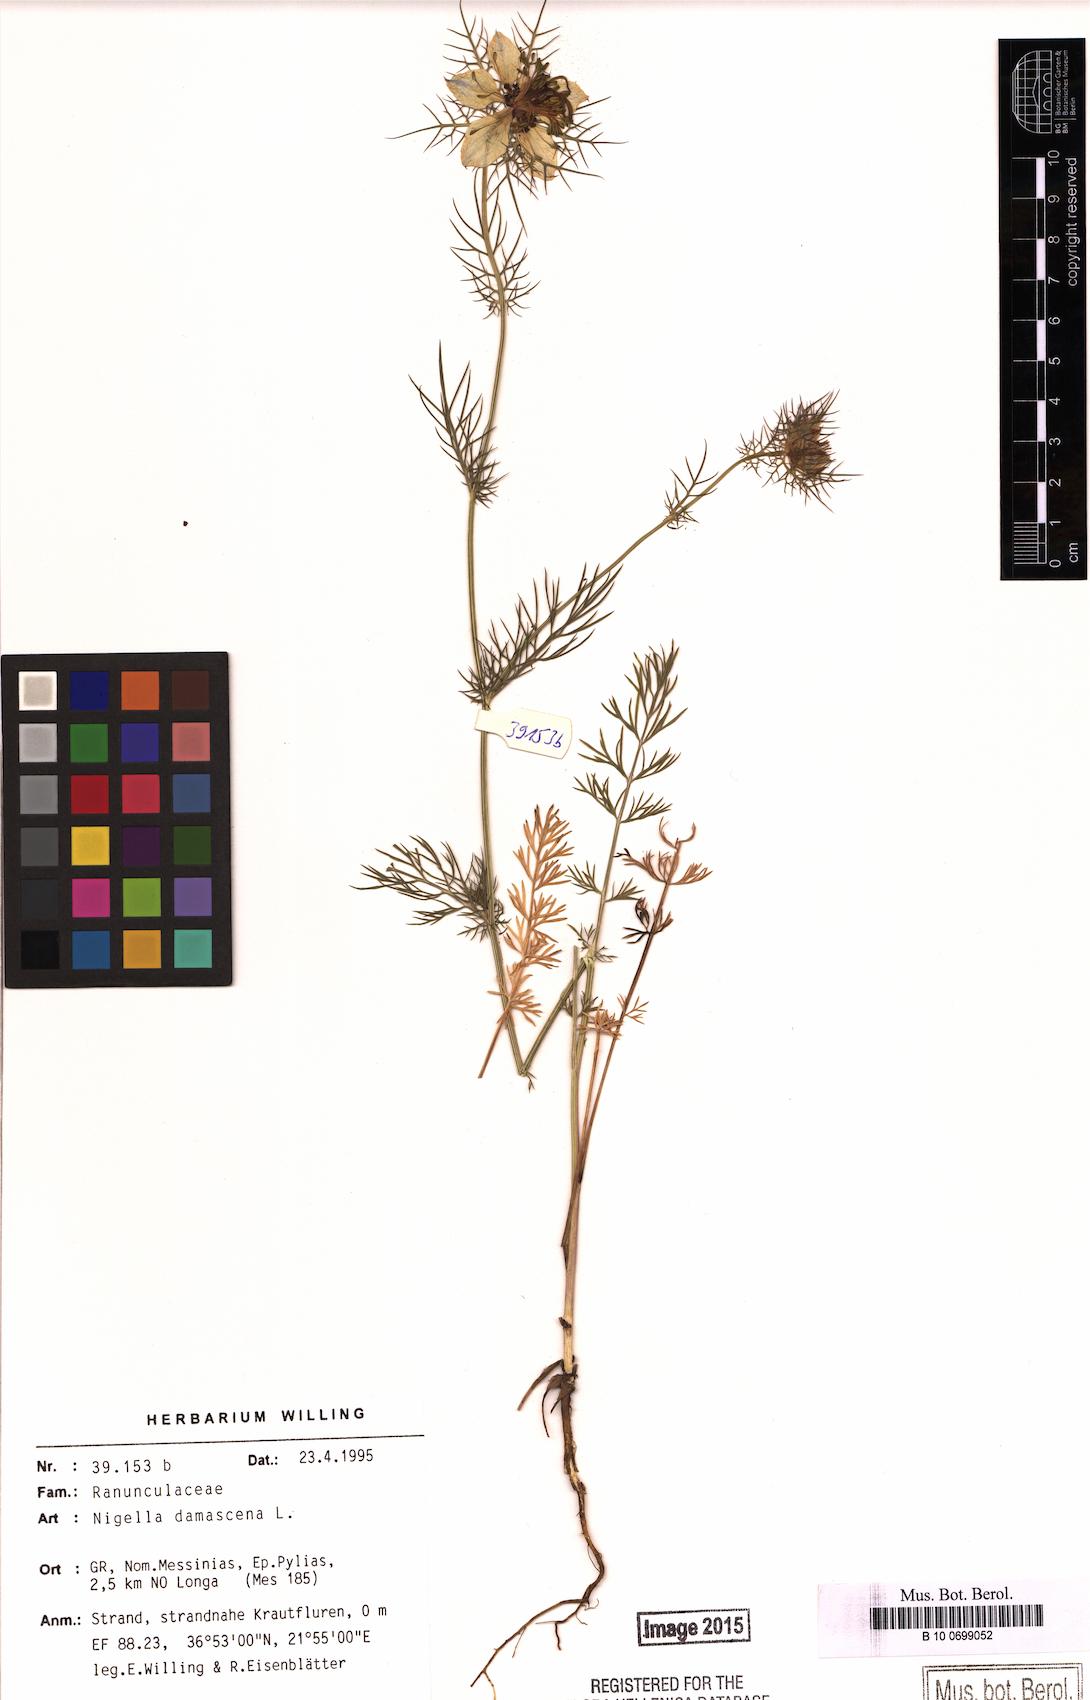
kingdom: Plantae
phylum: Tracheophyta
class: Magnoliopsida
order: Ranunculales
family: Ranunculaceae
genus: Nigella
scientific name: Nigella damascena
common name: Love-in-a-mist
